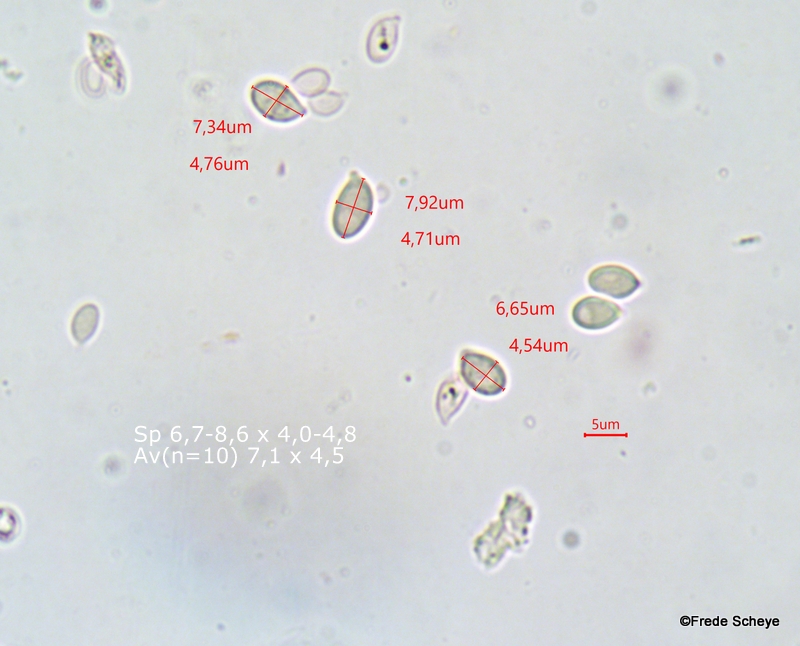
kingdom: Fungi
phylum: Basidiomycota
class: Agaricomycetes
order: Agaricales
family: Omphalotaceae
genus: Gymnopus
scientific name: Gymnopus androsaceus
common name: trådstokket fladhat
